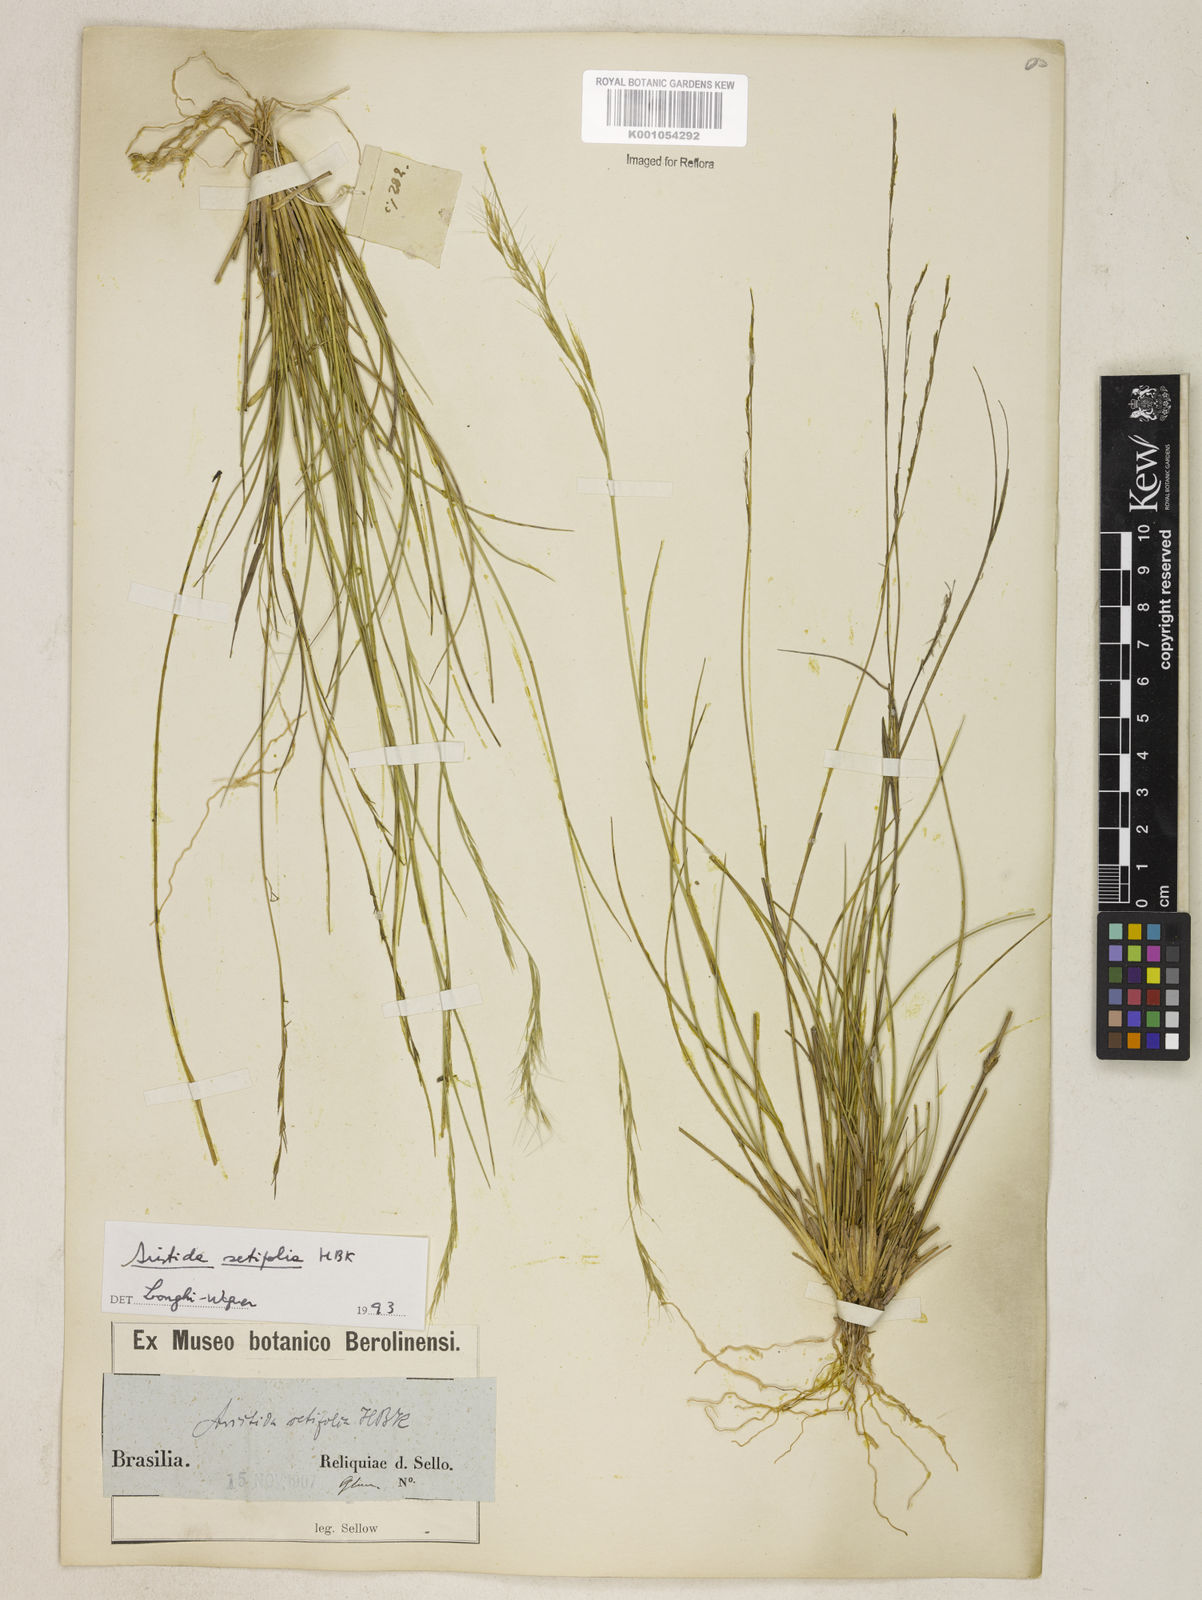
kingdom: Plantae
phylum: Tracheophyta
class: Liliopsida
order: Poales
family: Poaceae
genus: Aristida
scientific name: Aristida setifolia
